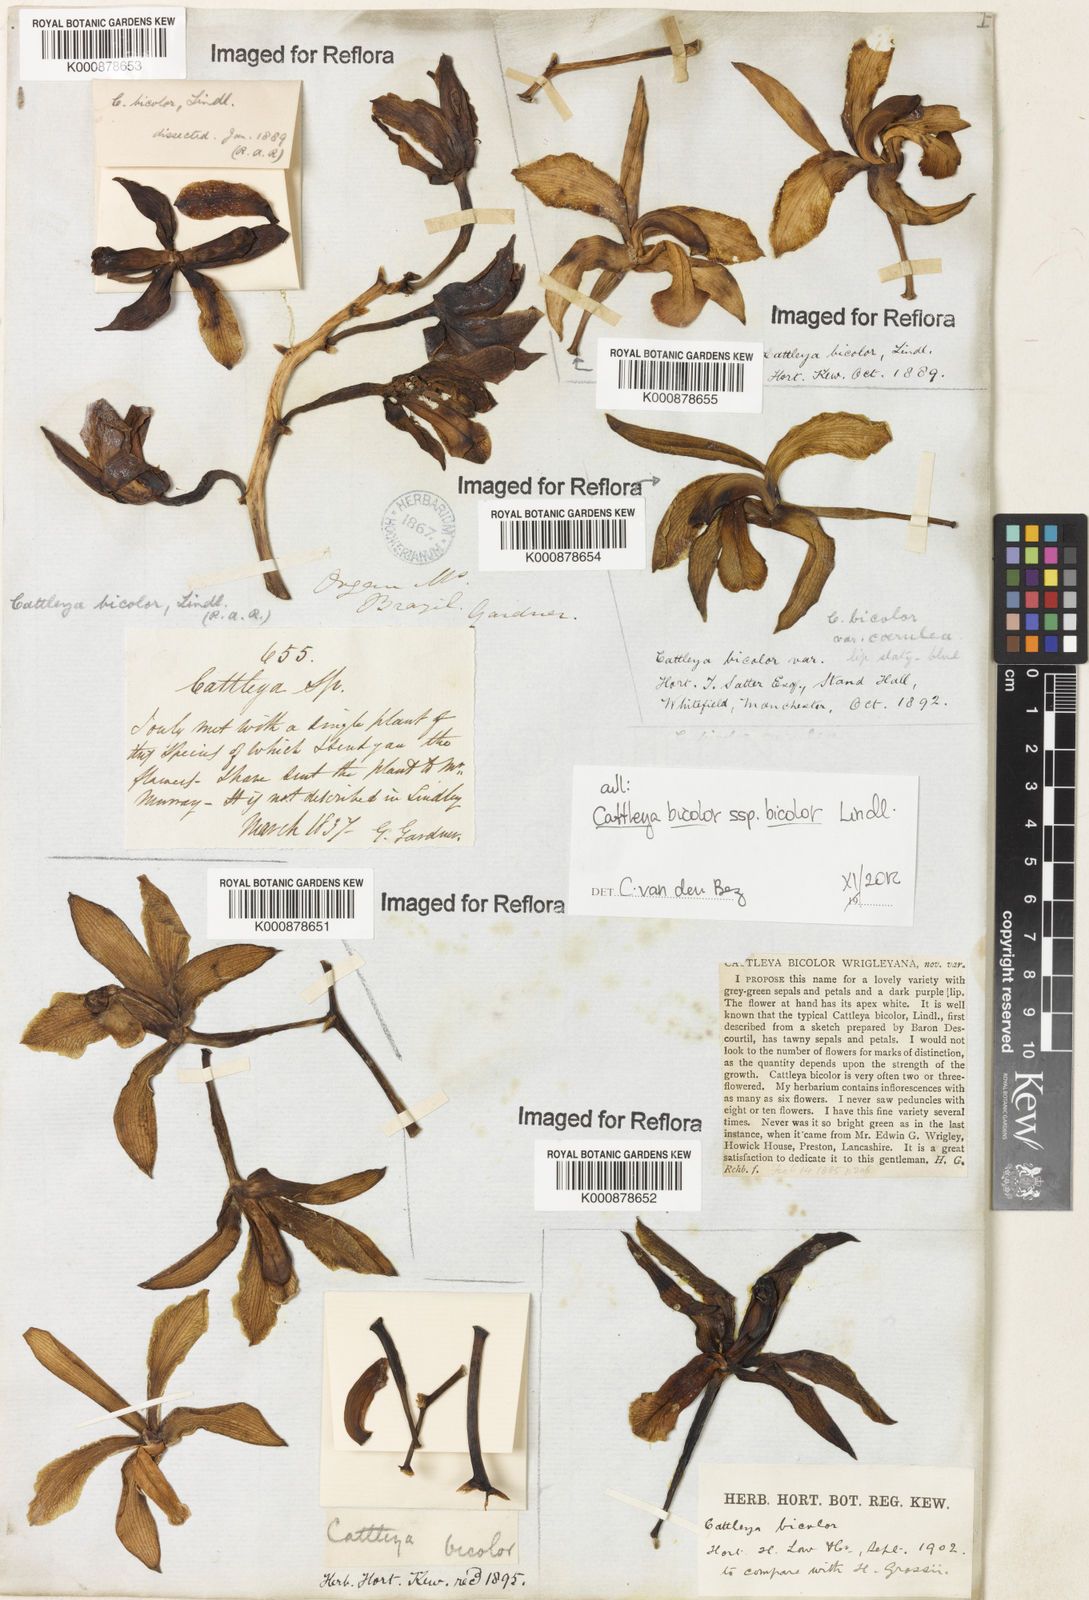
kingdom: Plantae
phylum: Tracheophyta
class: Liliopsida
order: Asparagales
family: Orchidaceae
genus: Cattleya
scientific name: Cattleya bicolor
